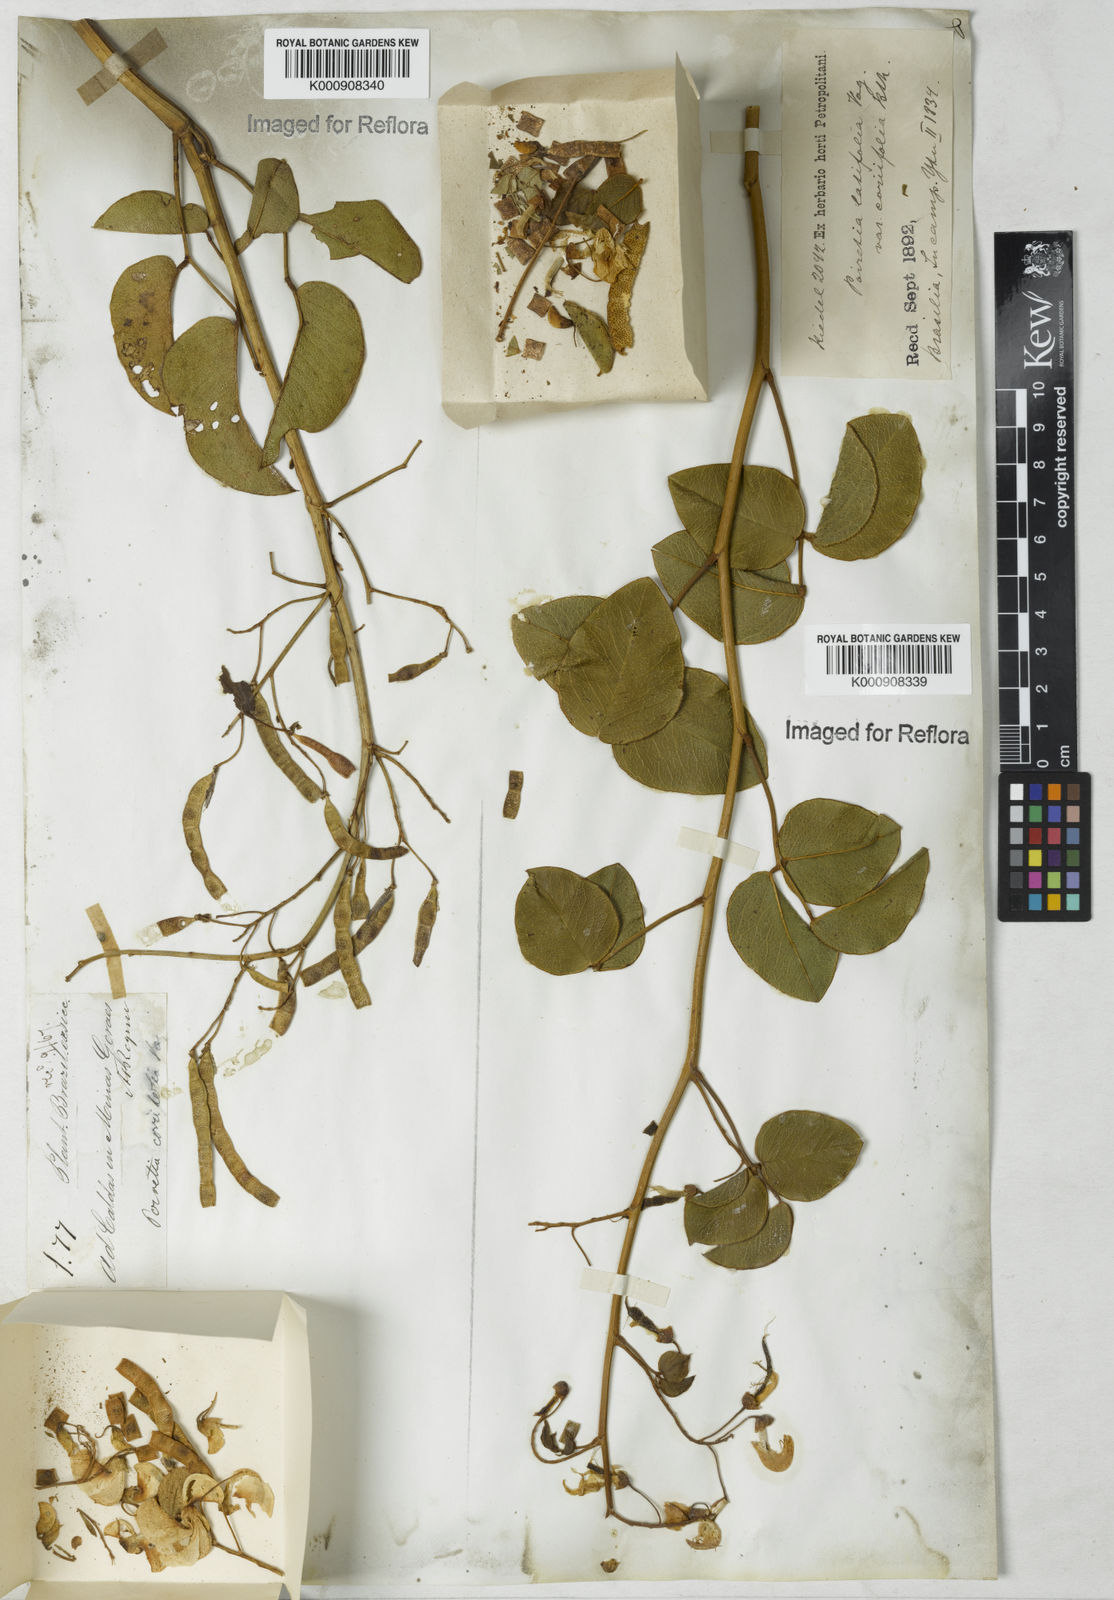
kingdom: Plantae
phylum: Tracheophyta
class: Magnoliopsida
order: Fabales
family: Fabaceae
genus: Poiretia
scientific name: Poiretia coriifolia
